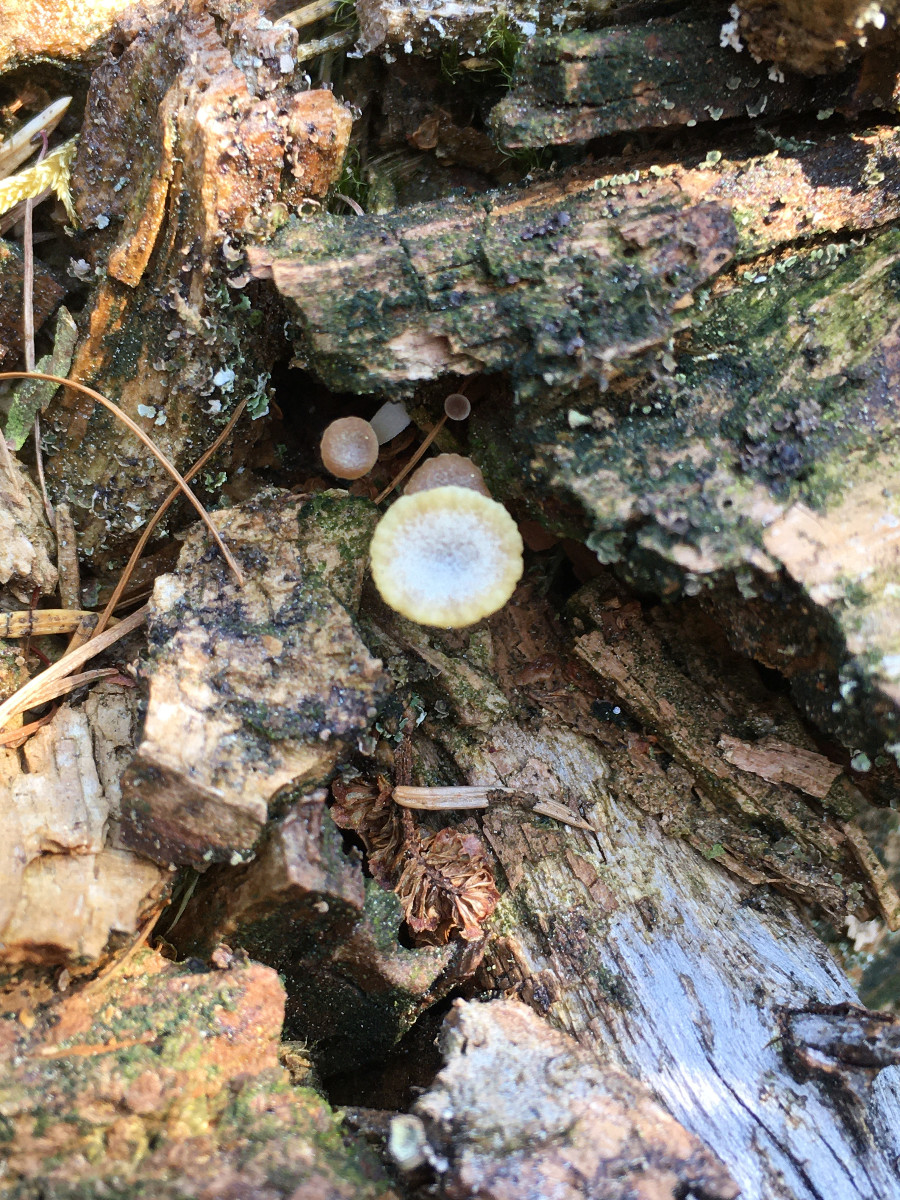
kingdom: Fungi
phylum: Basidiomycota
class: Agaricomycetes
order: Agaricales
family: Hygrophoraceae
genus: Lichenomphalia
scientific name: Lichenomphalia umbellifera
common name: tørve-lavhat
